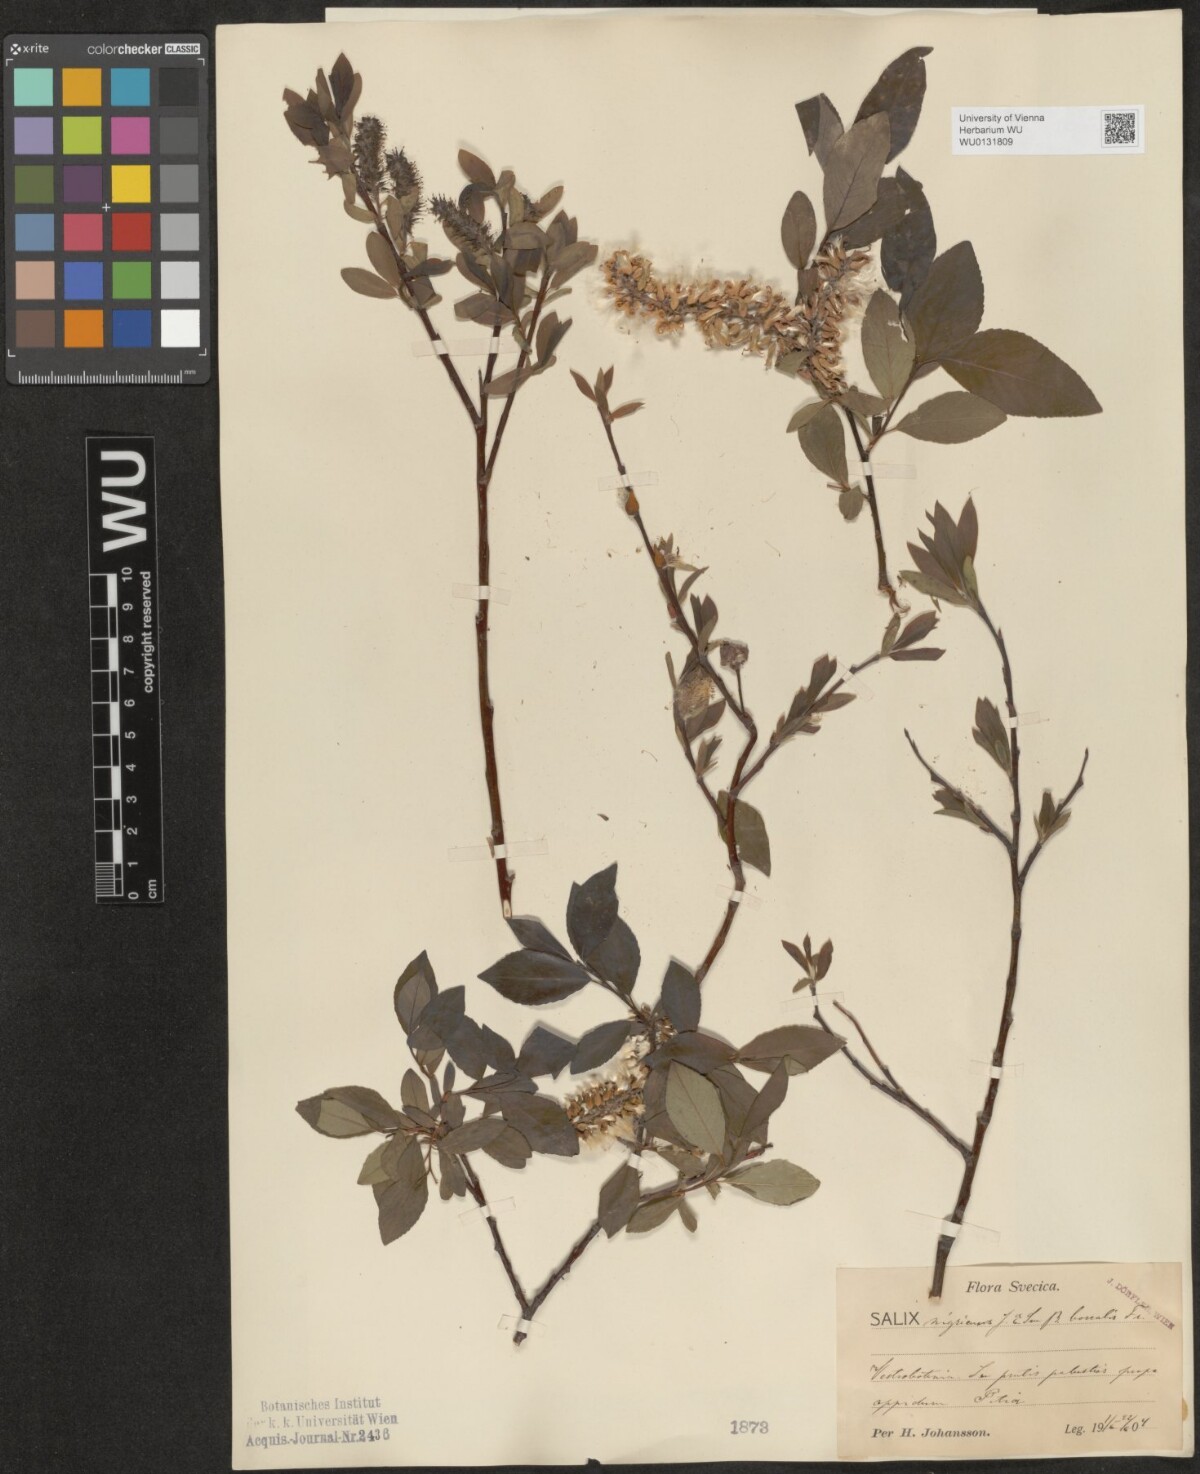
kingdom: Plantae
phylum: Tracheophyta
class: Magnoliopsida
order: Malpighiales
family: Salicaceae
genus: Salix
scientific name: Salix myrsinifolia
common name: Dark-leaved willow
